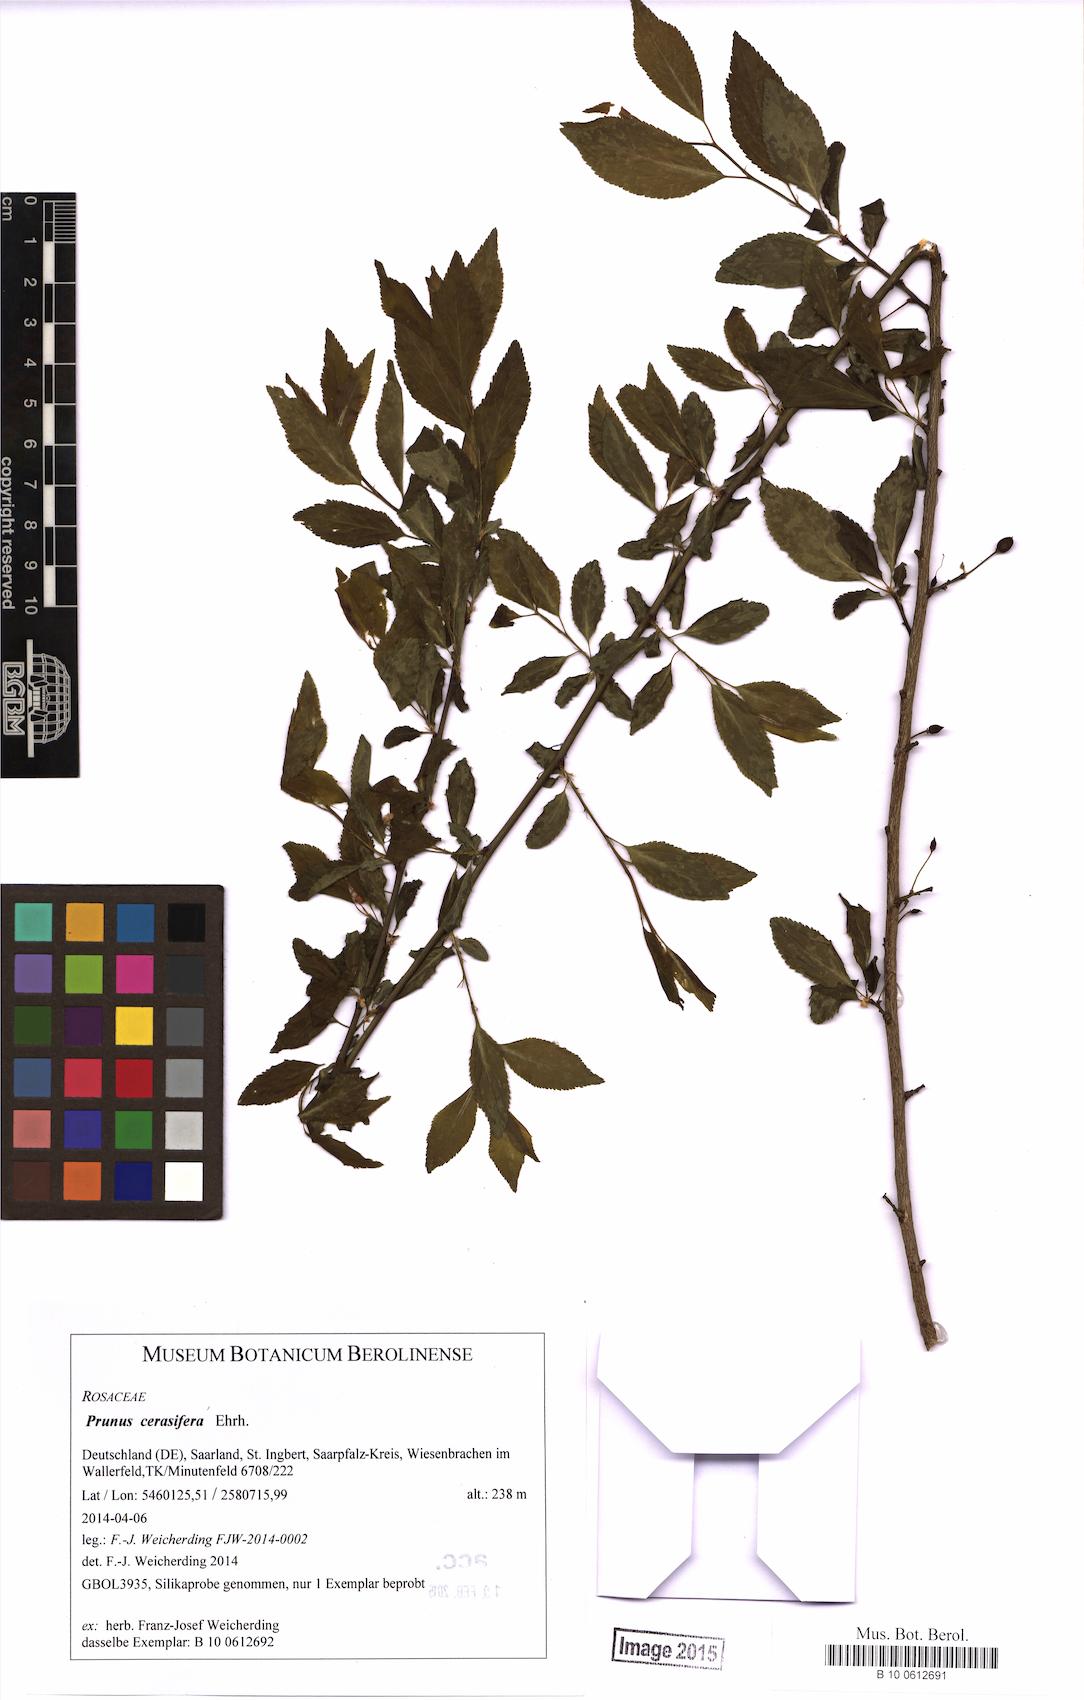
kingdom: Plantae
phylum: Tracheophyta
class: Magnoliopsida
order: Rosales
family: Rosaceae
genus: Prunus
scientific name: Prunus cerasifera
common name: Cherry plum
